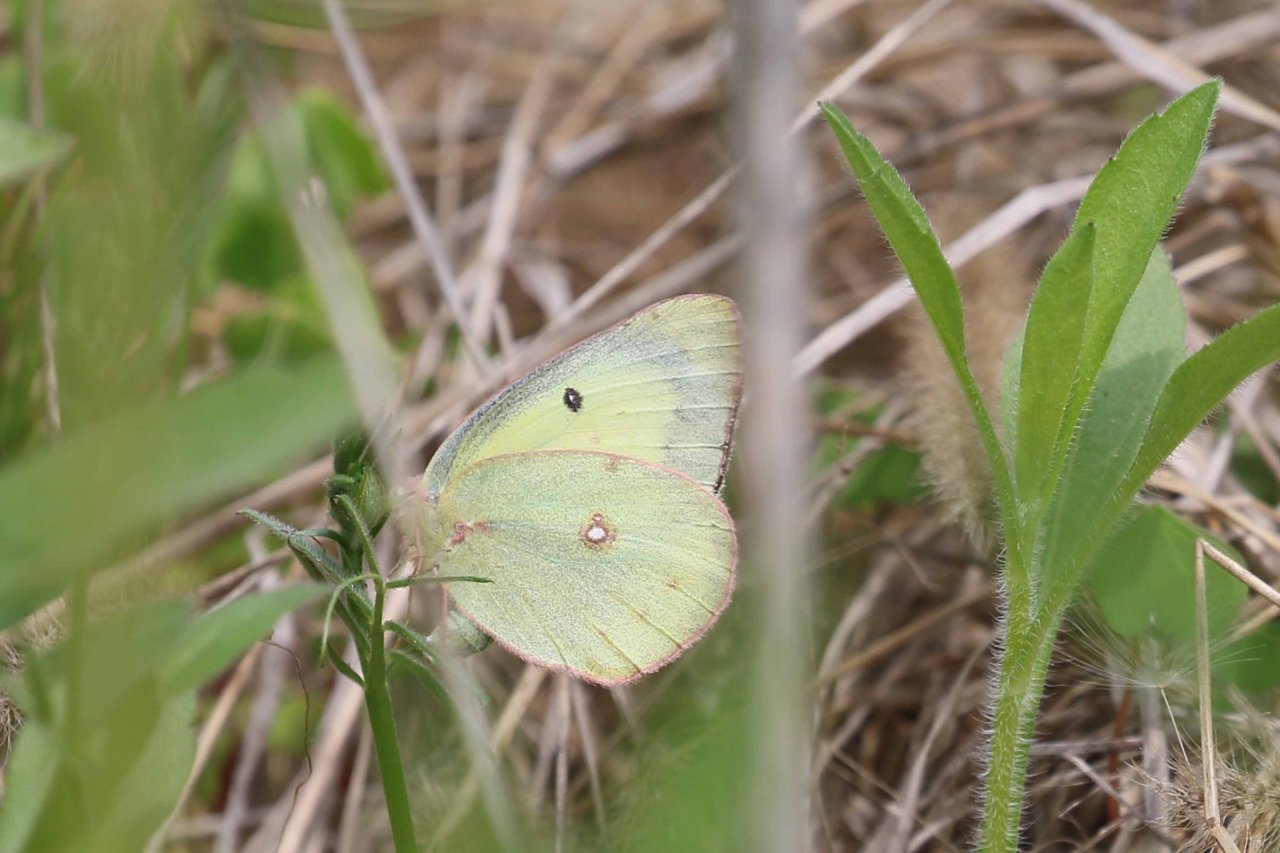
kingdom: Animalia
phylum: Arthropoda
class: Insecta
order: Lepidoptera
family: Pieridae
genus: Colias
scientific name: Colias philodice
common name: Clouded Sulphur
